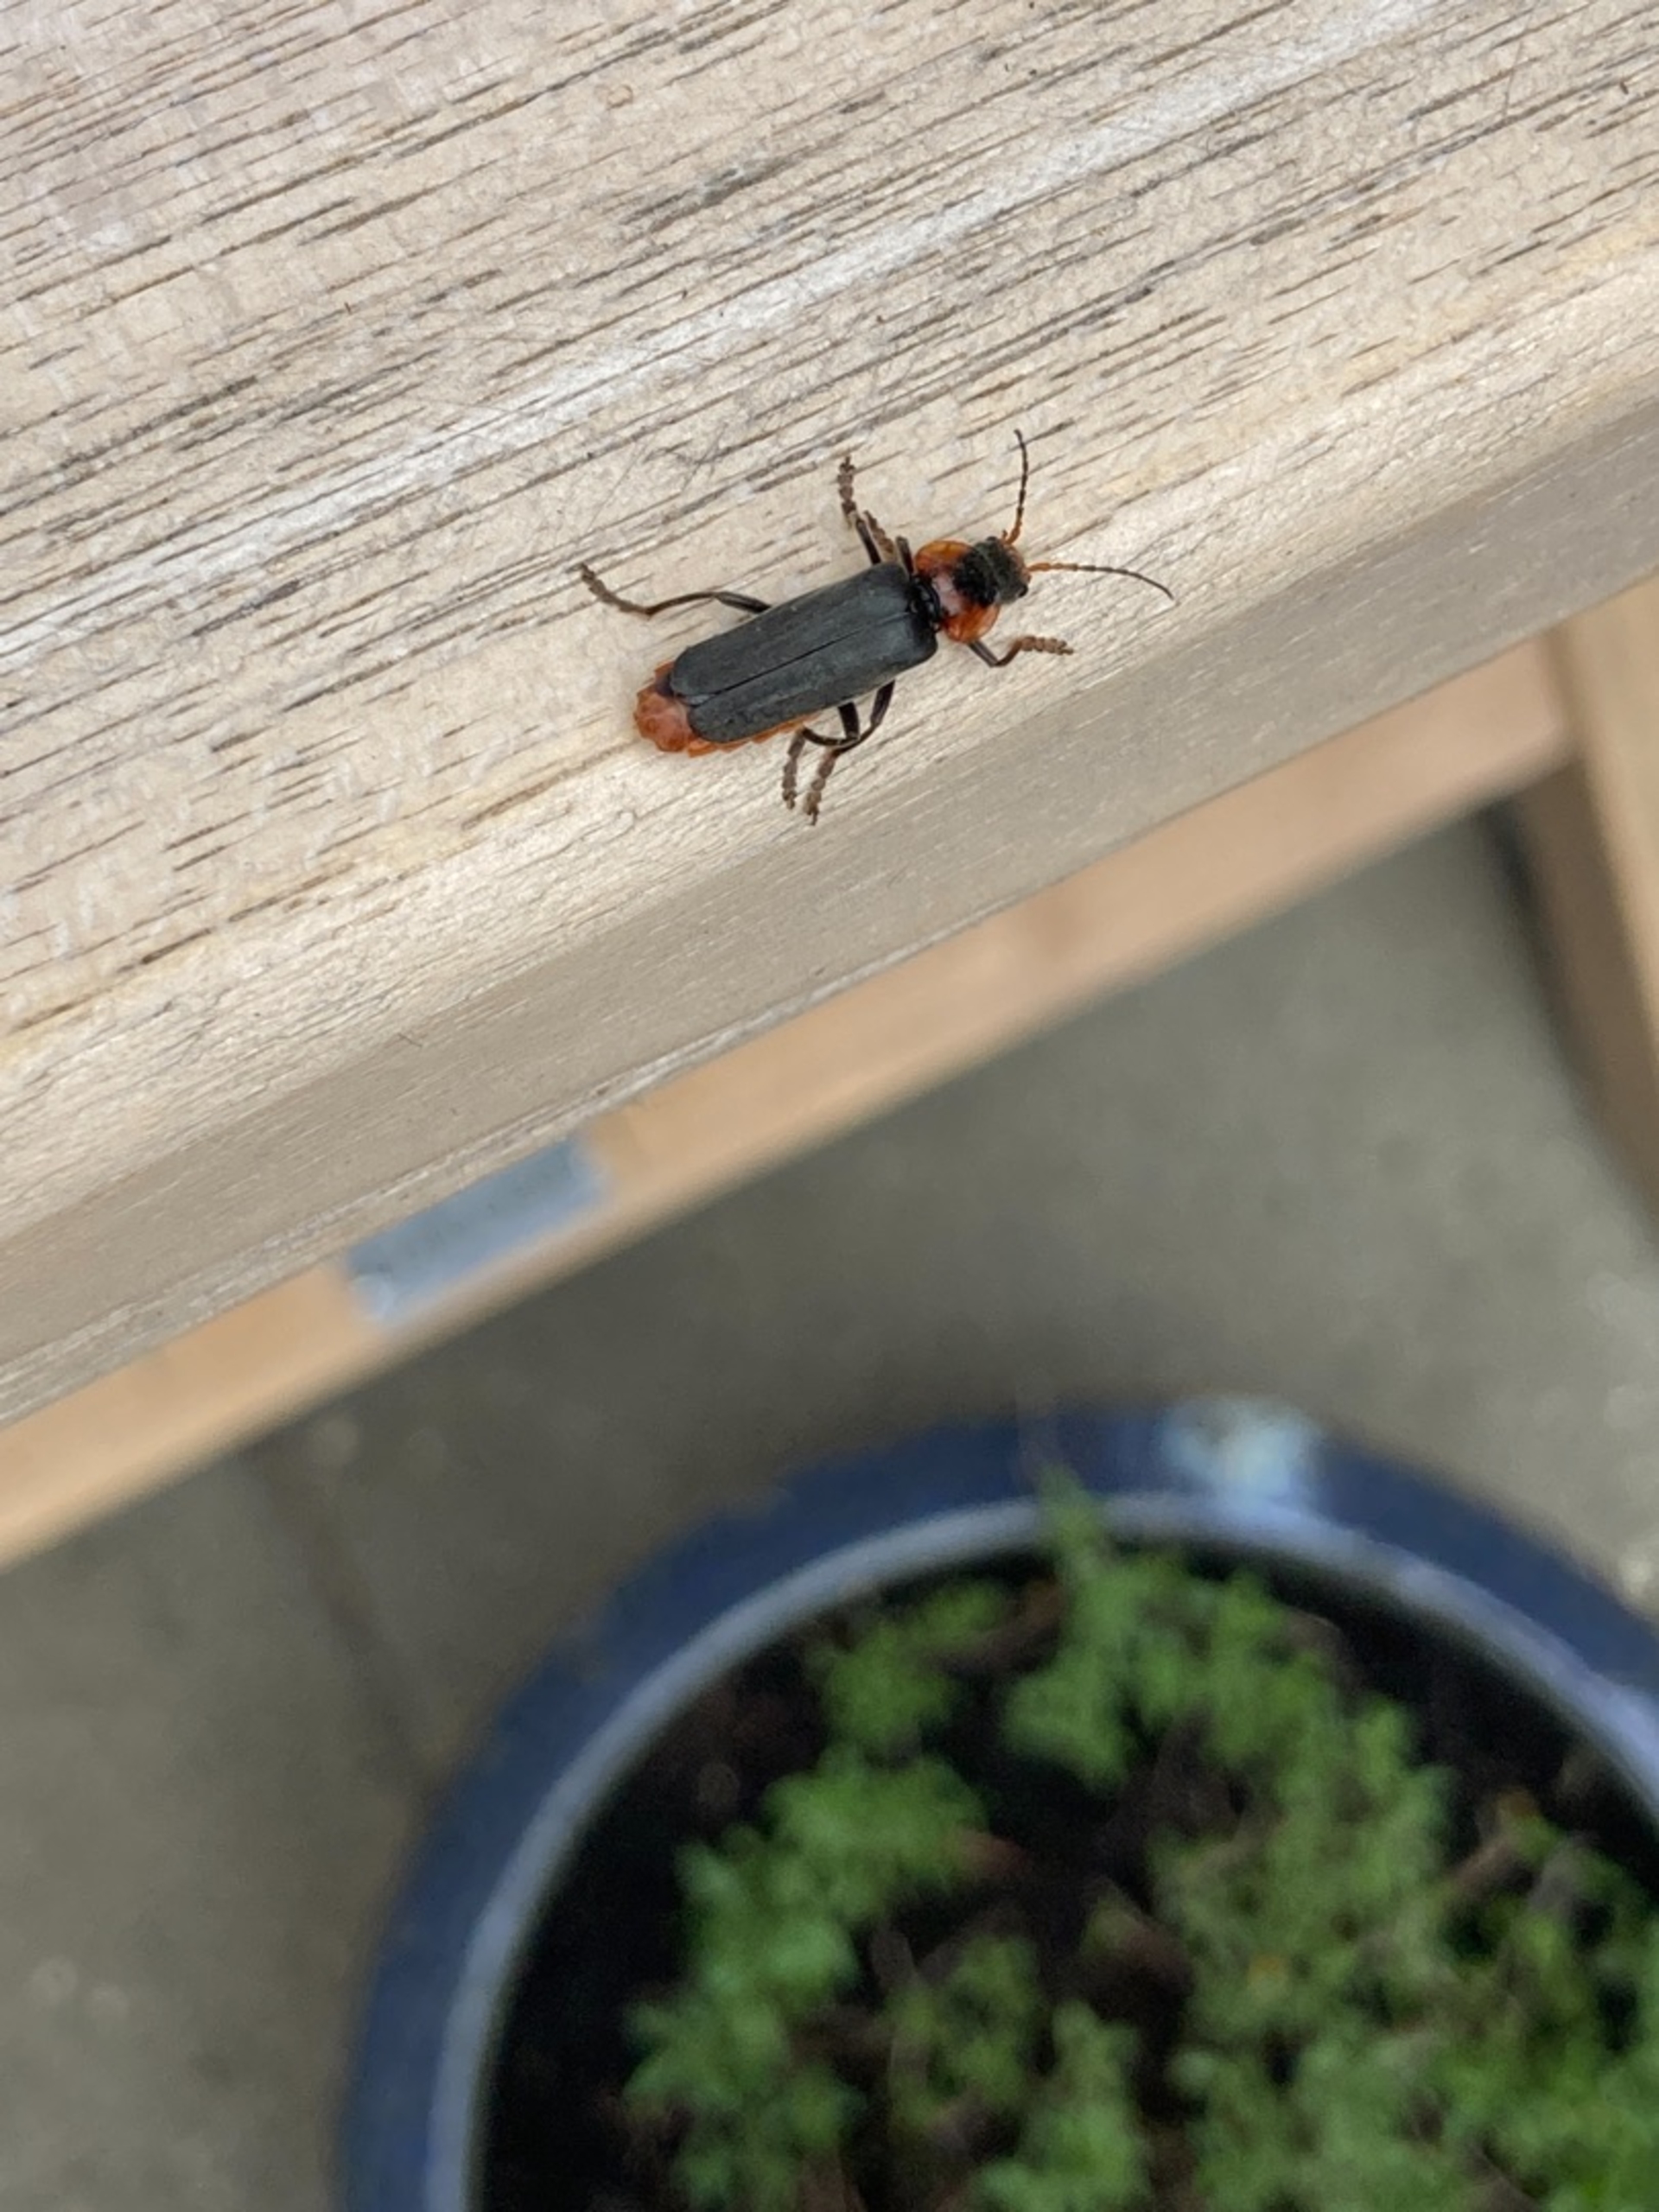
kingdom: Animalia
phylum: Arthropoda
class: Insecta
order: Coleoptera
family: Cantharidae
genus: Cantharis
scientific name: Cantharis fusca
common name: Stor blødvinge
